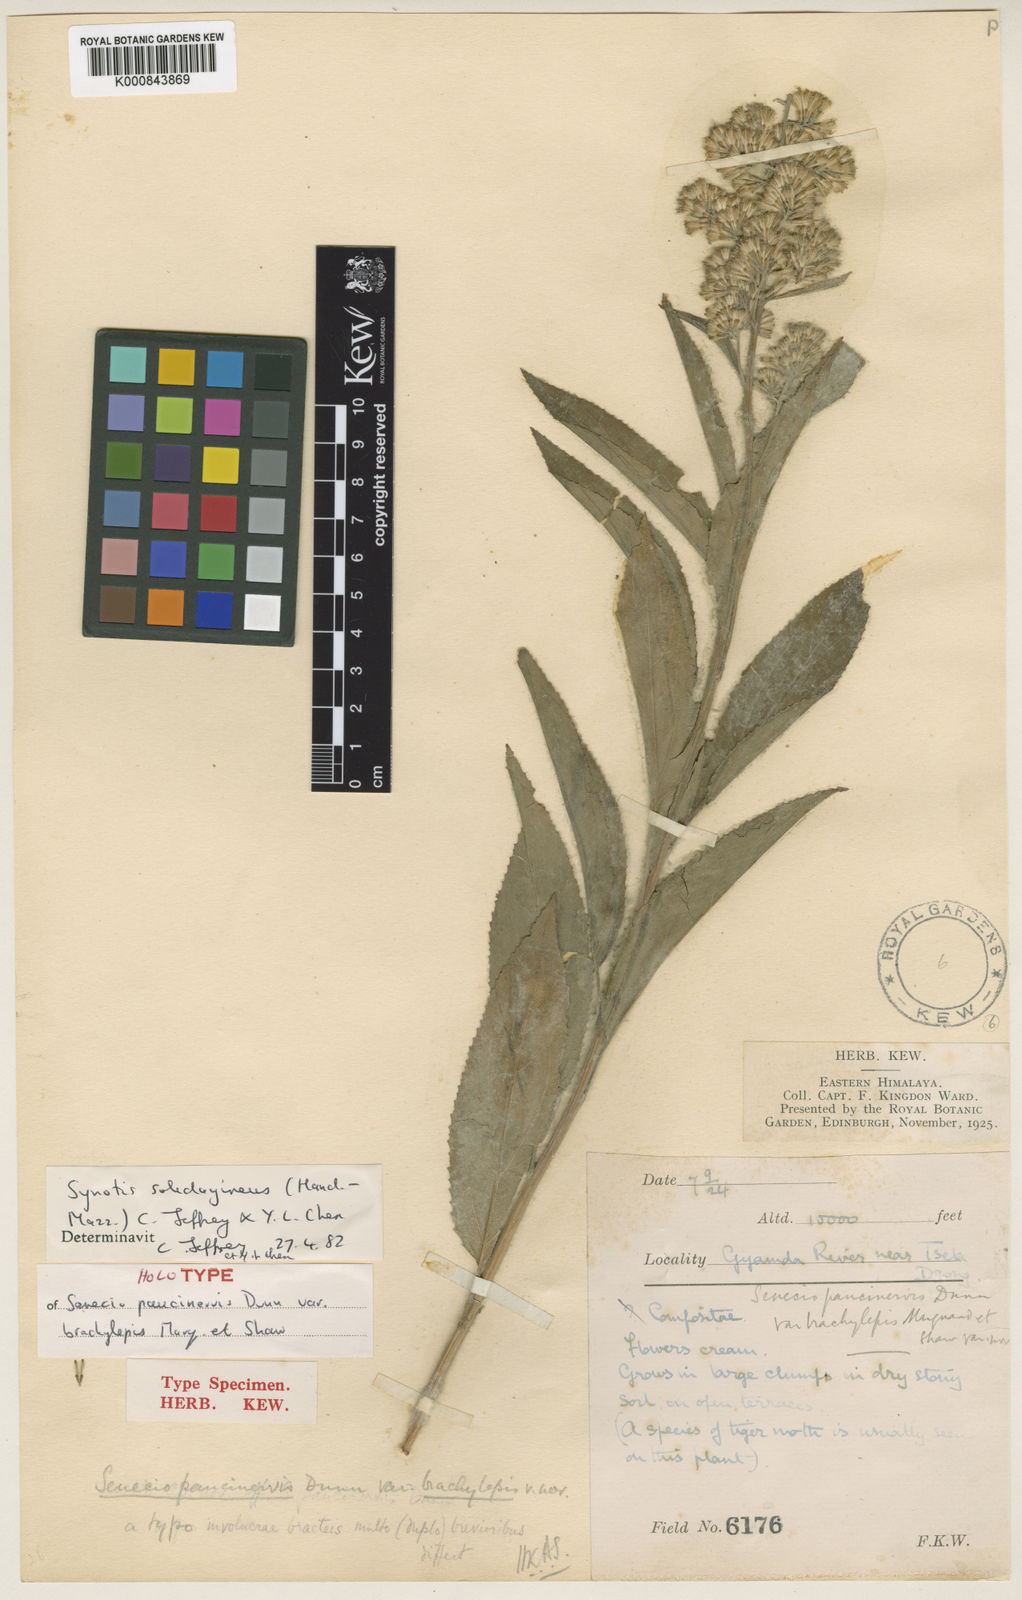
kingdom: Plantae
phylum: Tracheophyta
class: Magnoliopsida
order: Asterales
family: Asteraceae
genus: Synotis
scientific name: Synotis solidaginea
